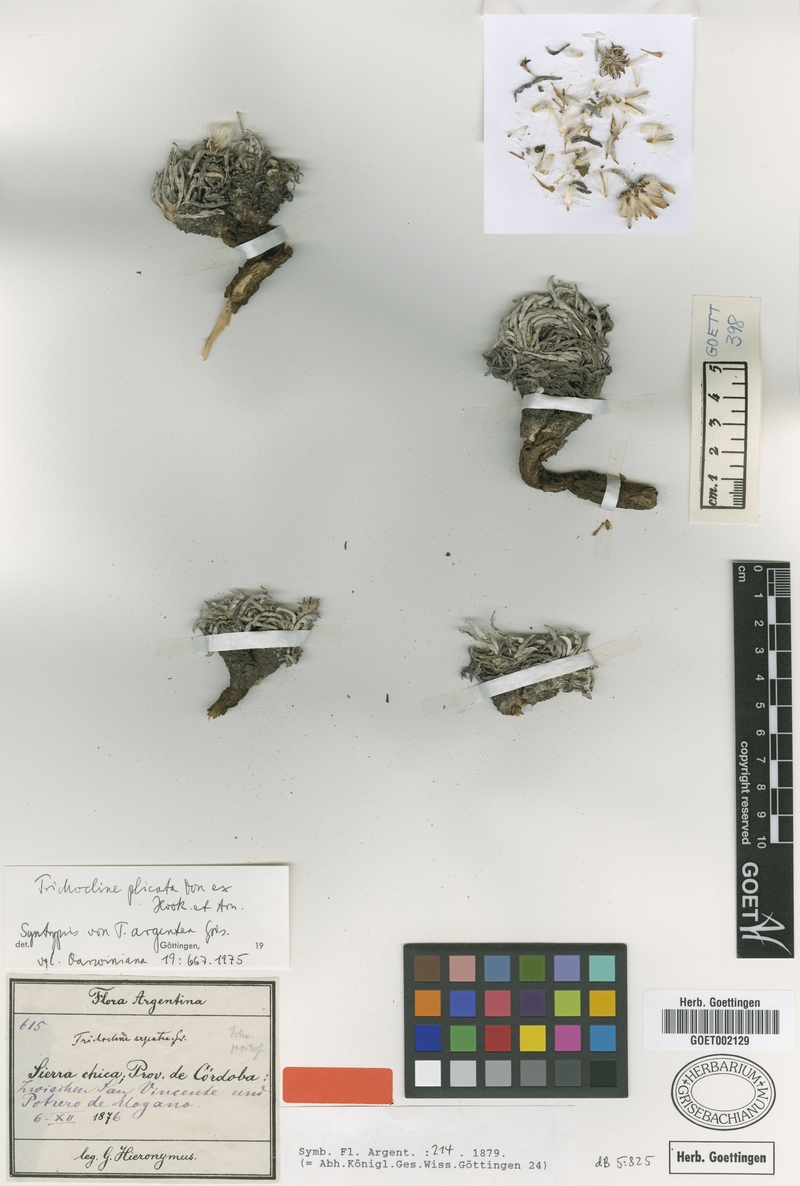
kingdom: Plantae
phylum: Tracheophyta
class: Magnoliopsida
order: Asterales
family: Asteraceae
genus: Trichocline
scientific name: Trichocline plicata
